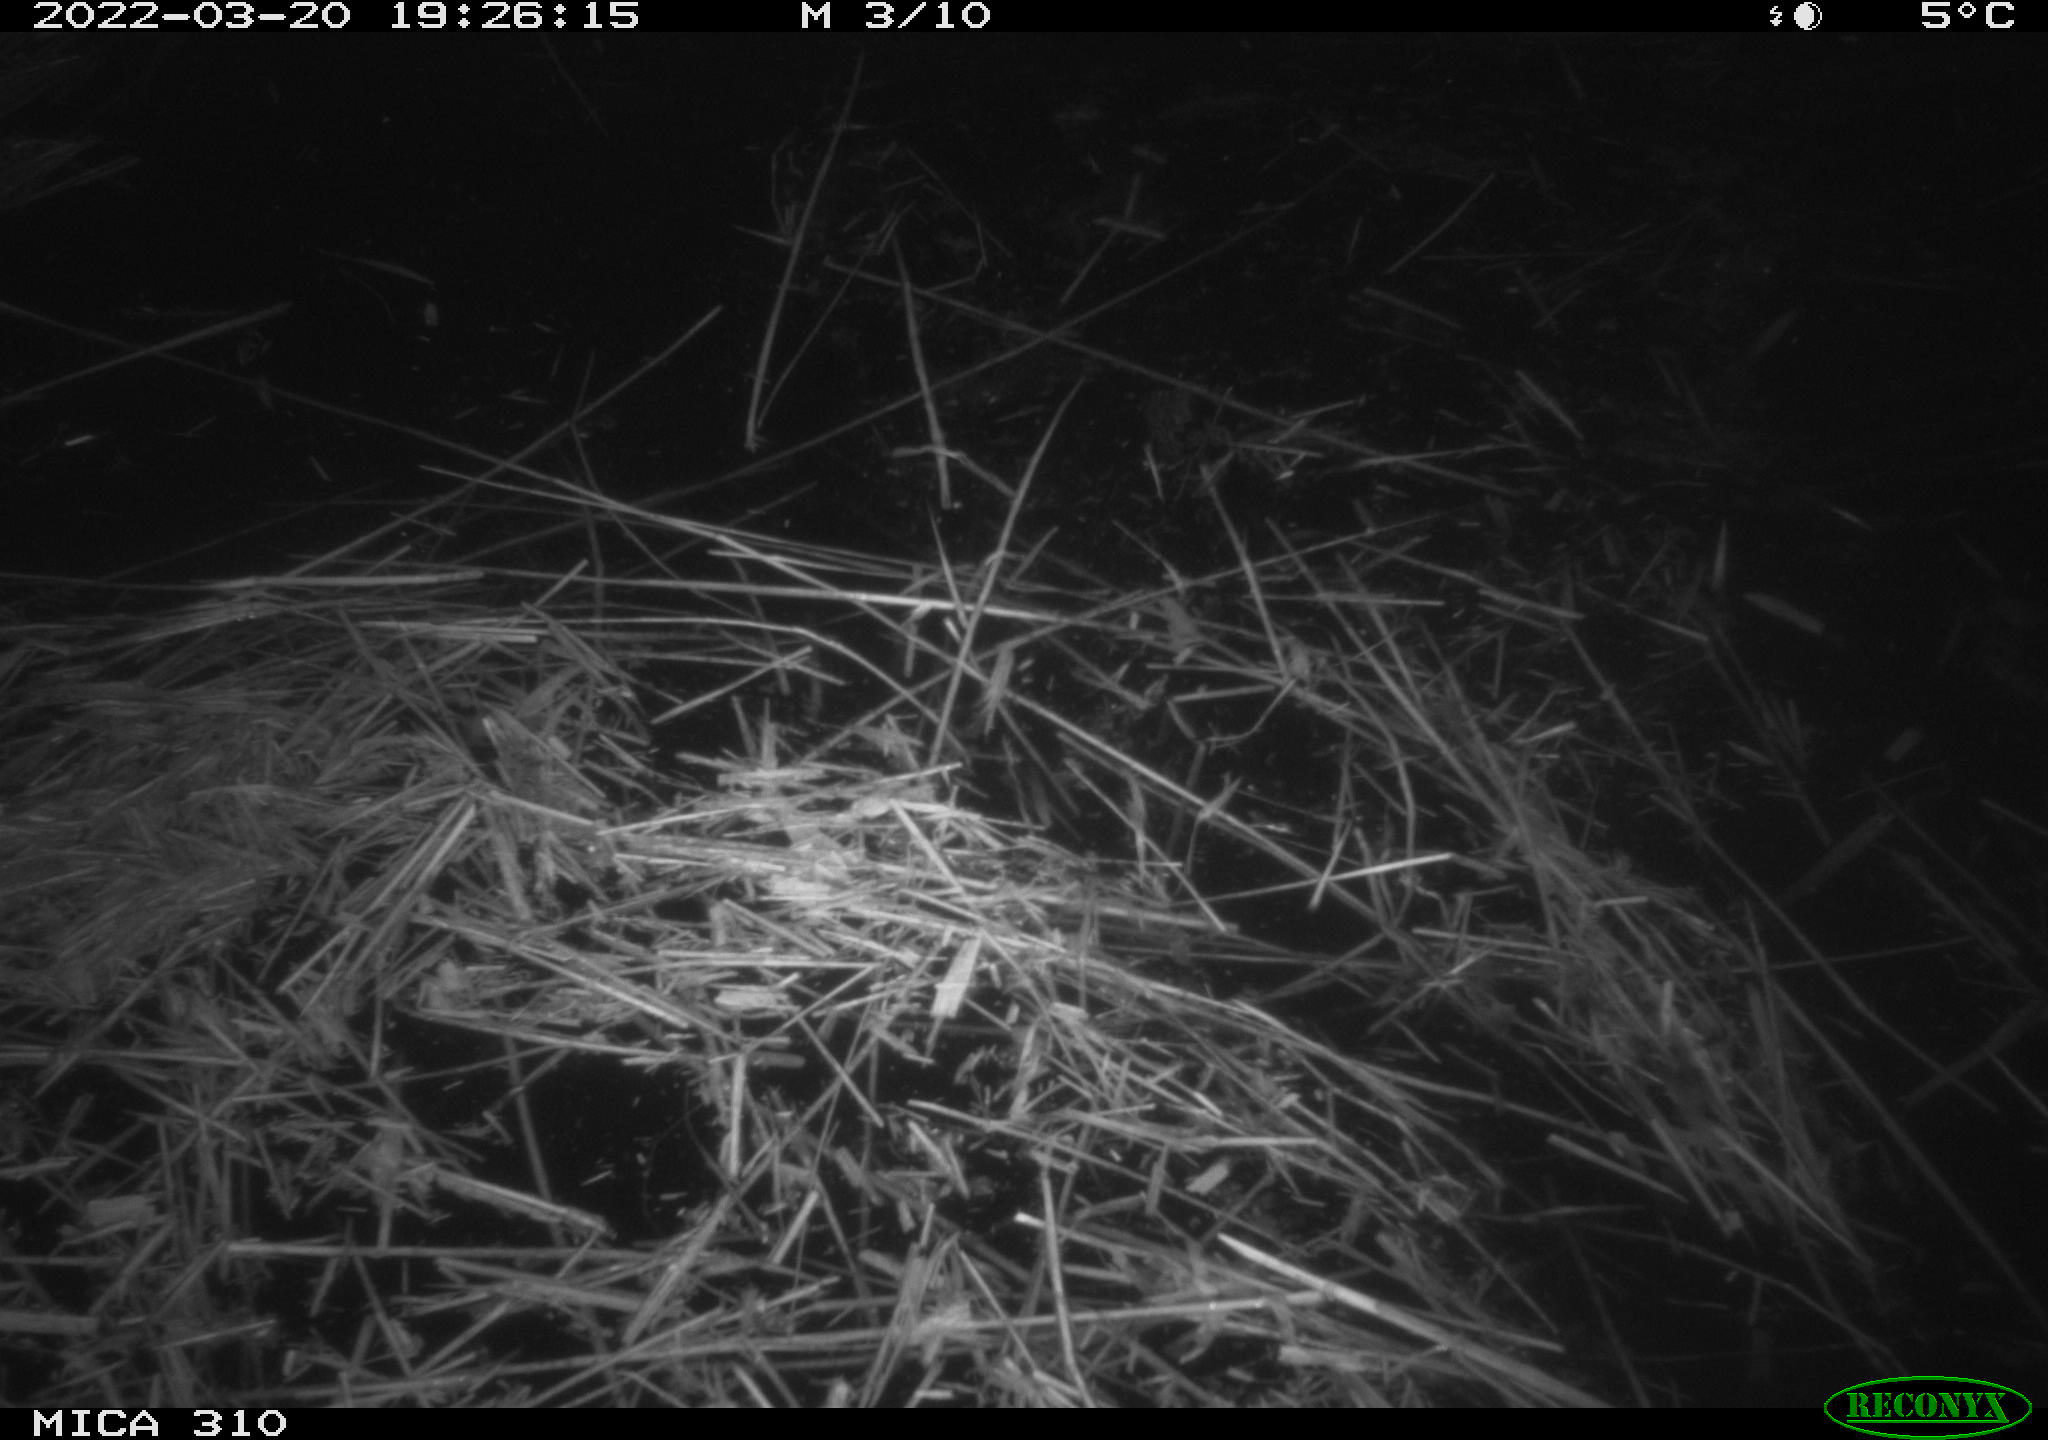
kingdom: Animalia
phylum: Chordata
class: Aves
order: Anseriformes
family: Anatidae
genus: Anas
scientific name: Anas platyrhynchos
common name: Mallard
